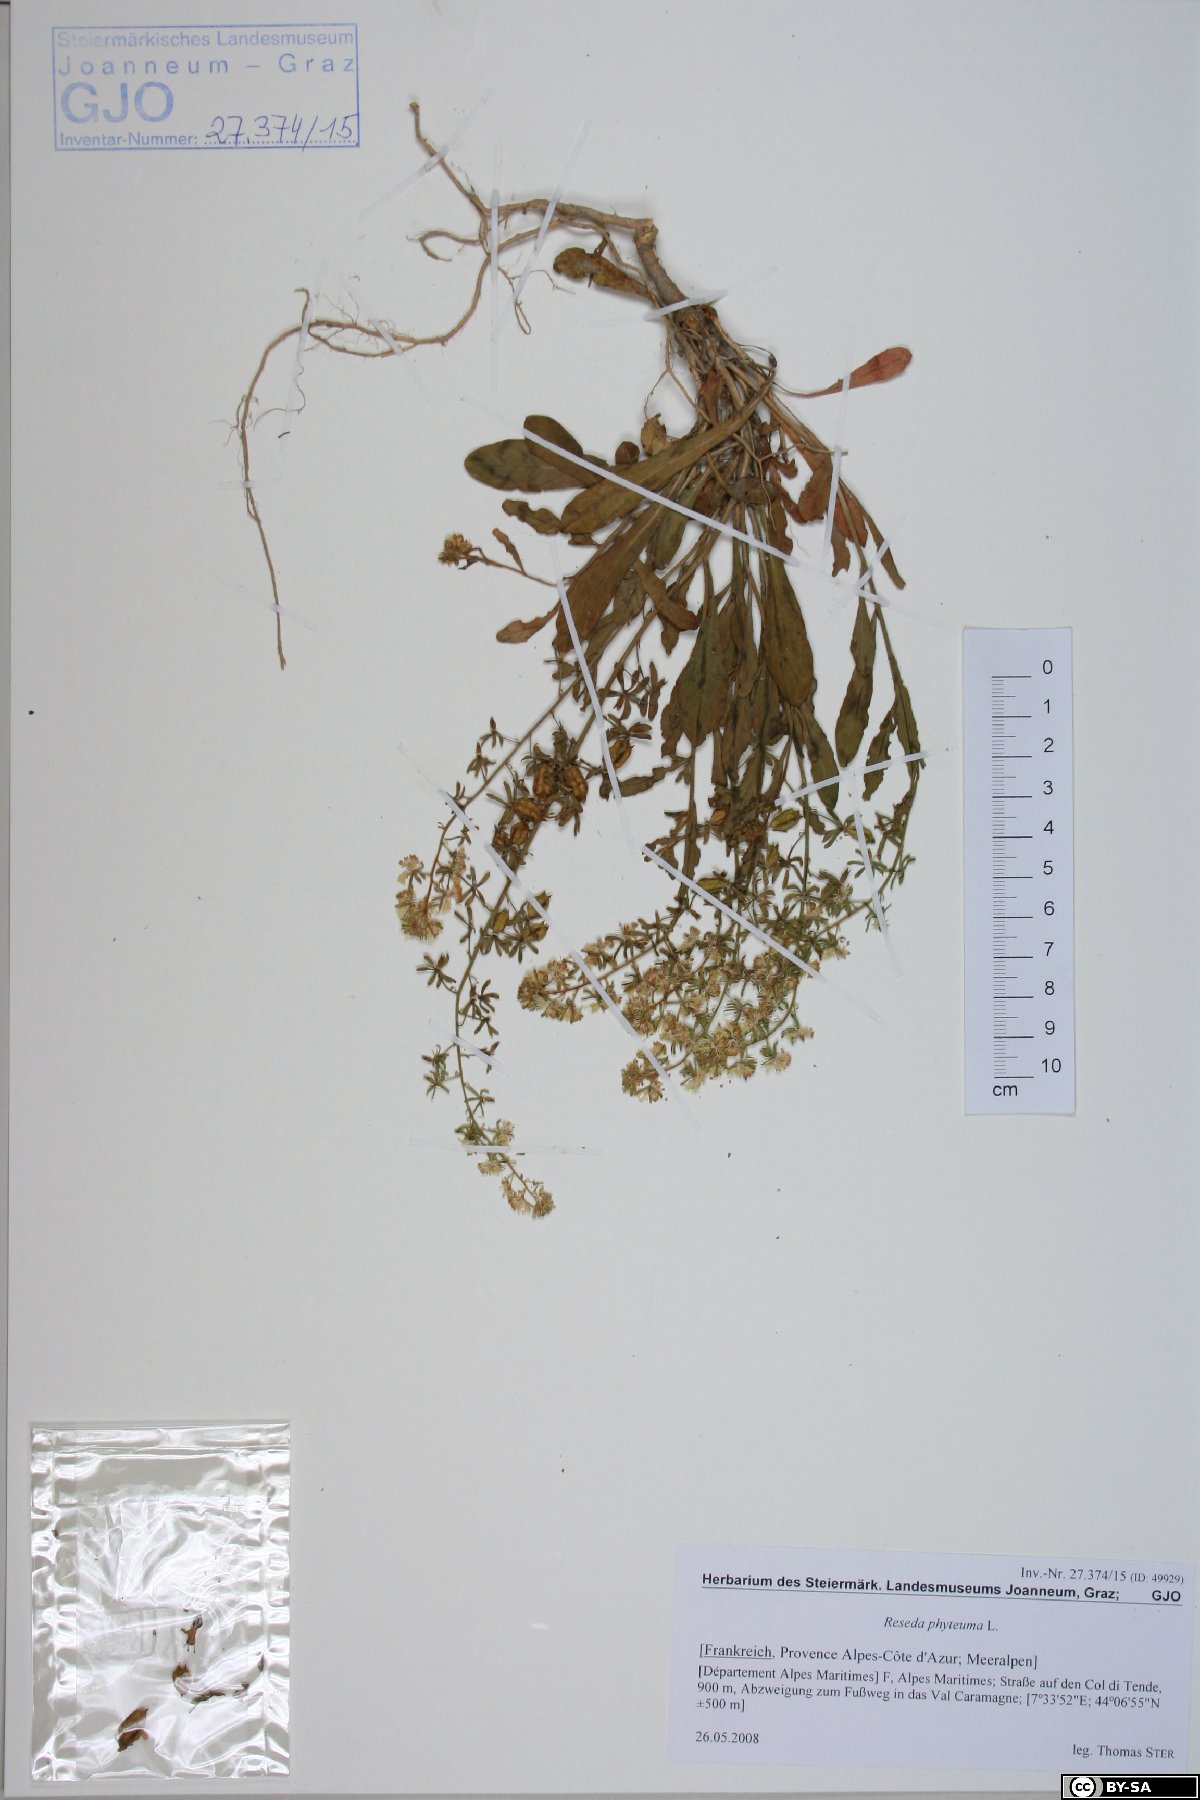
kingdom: Plantae
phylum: Tracheophyta
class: Magnoliopsida
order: Brassicales
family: Resedaceae
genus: Reseda
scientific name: Reseda phyteuma
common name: Corn mignonette
